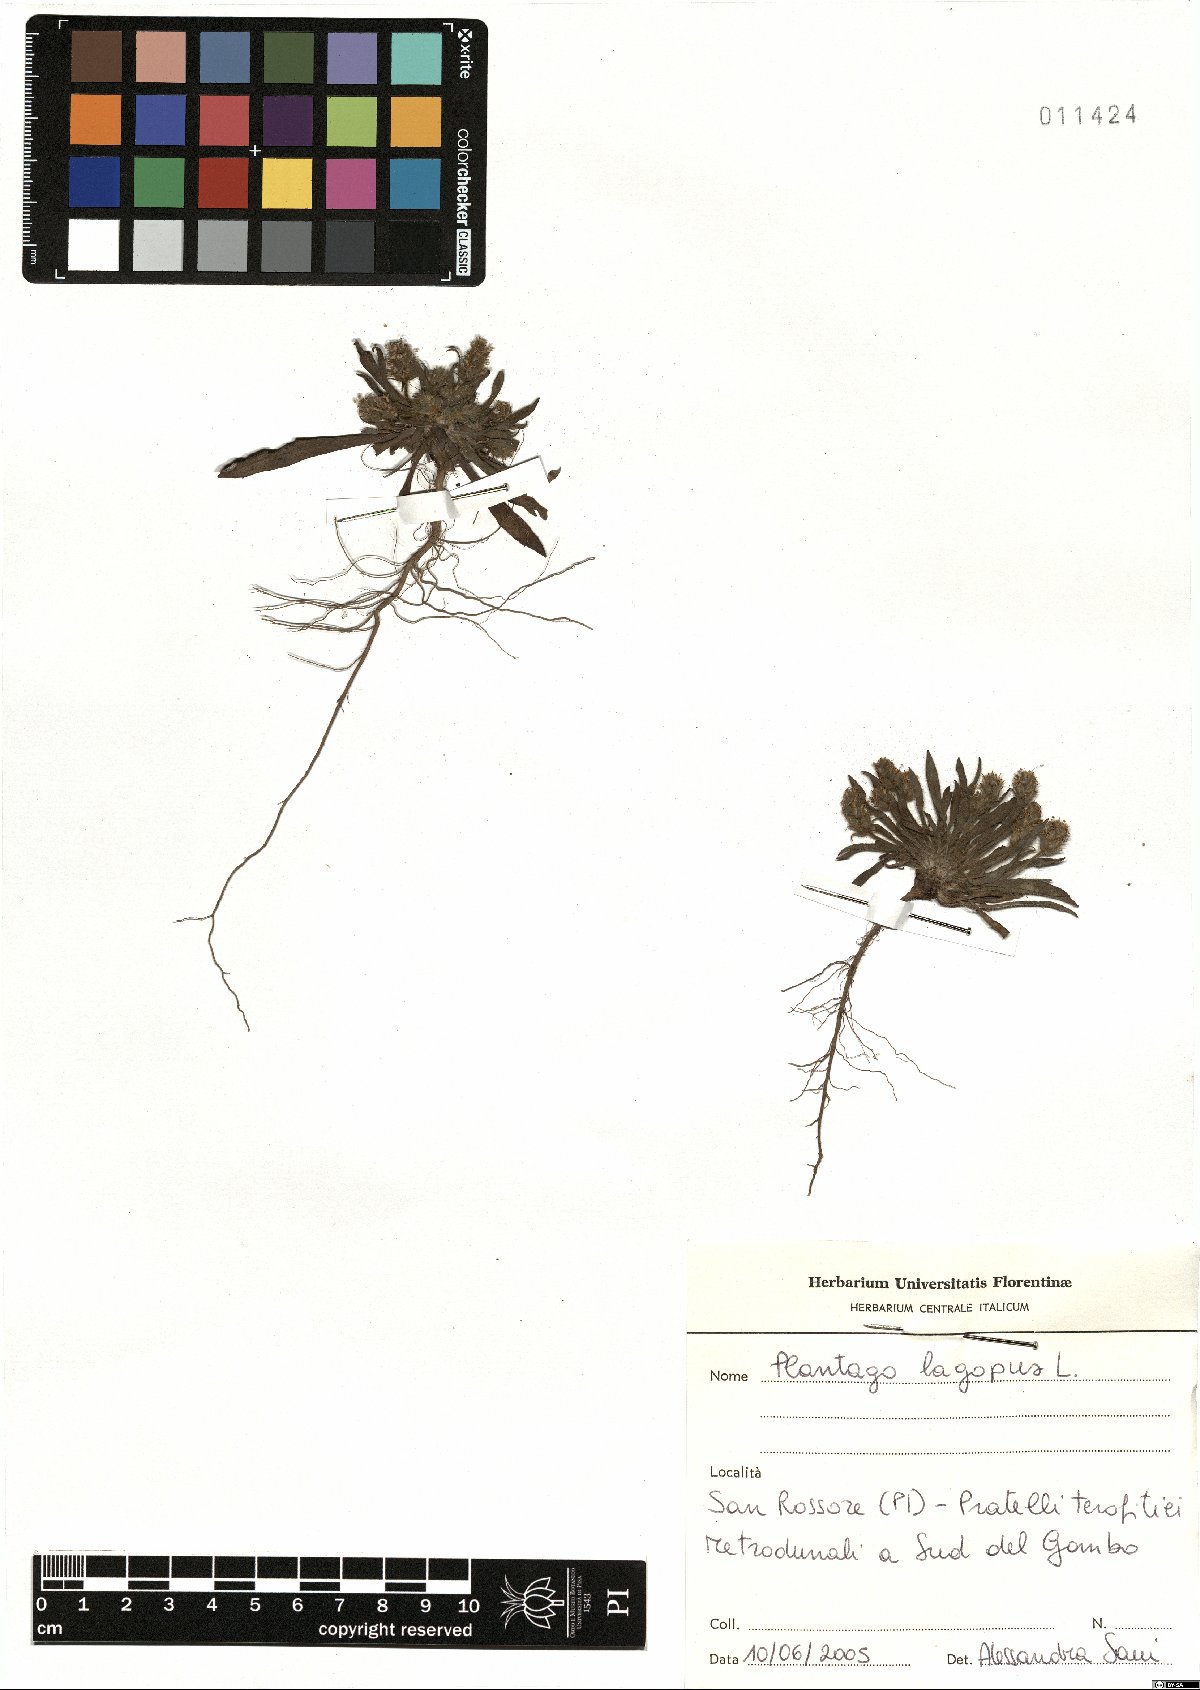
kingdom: Plantae
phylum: Tracheophyta
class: Magnoliopsida
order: Lamiales
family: Plantaginaceae
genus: Plantago
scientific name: Plantago lagopus
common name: Hare-foot plantain
